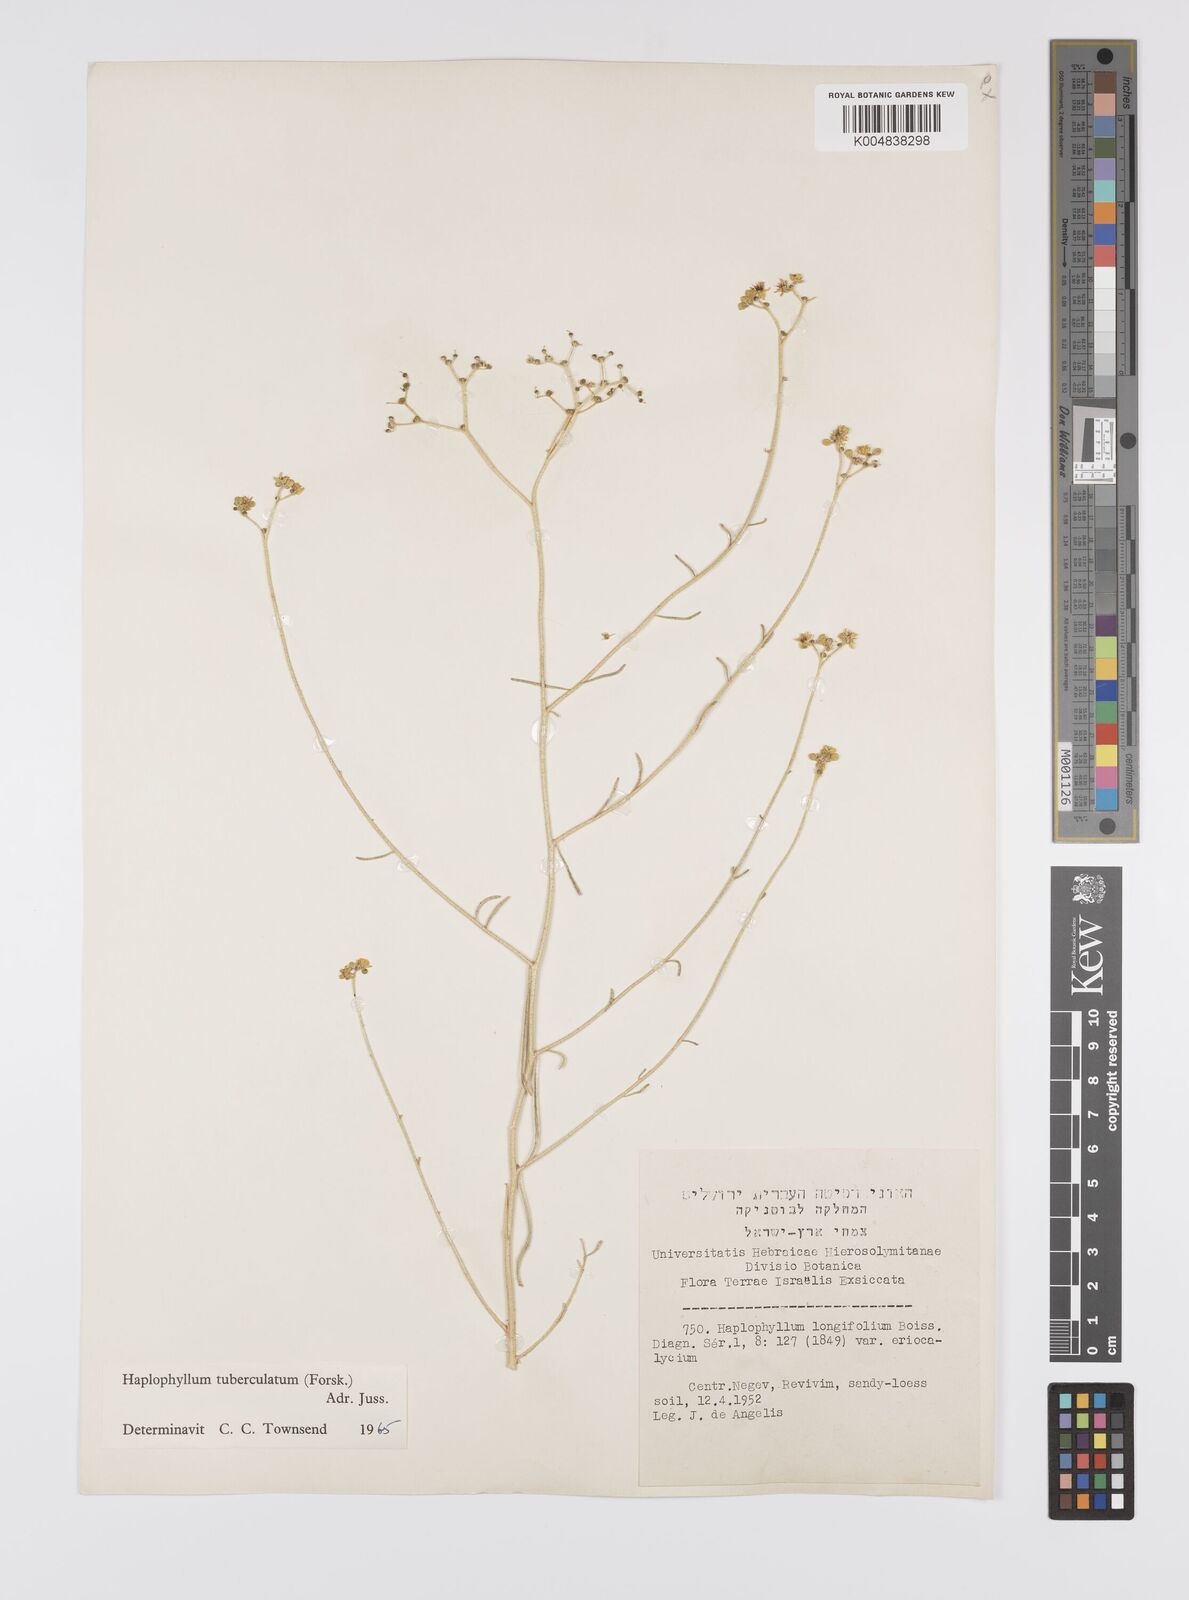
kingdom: Plantae
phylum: Tracheophyta
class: Magnoliopsida
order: Sapindales
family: Rutaceae
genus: Haplophyllum
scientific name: Haplophyllum tuberculatum
